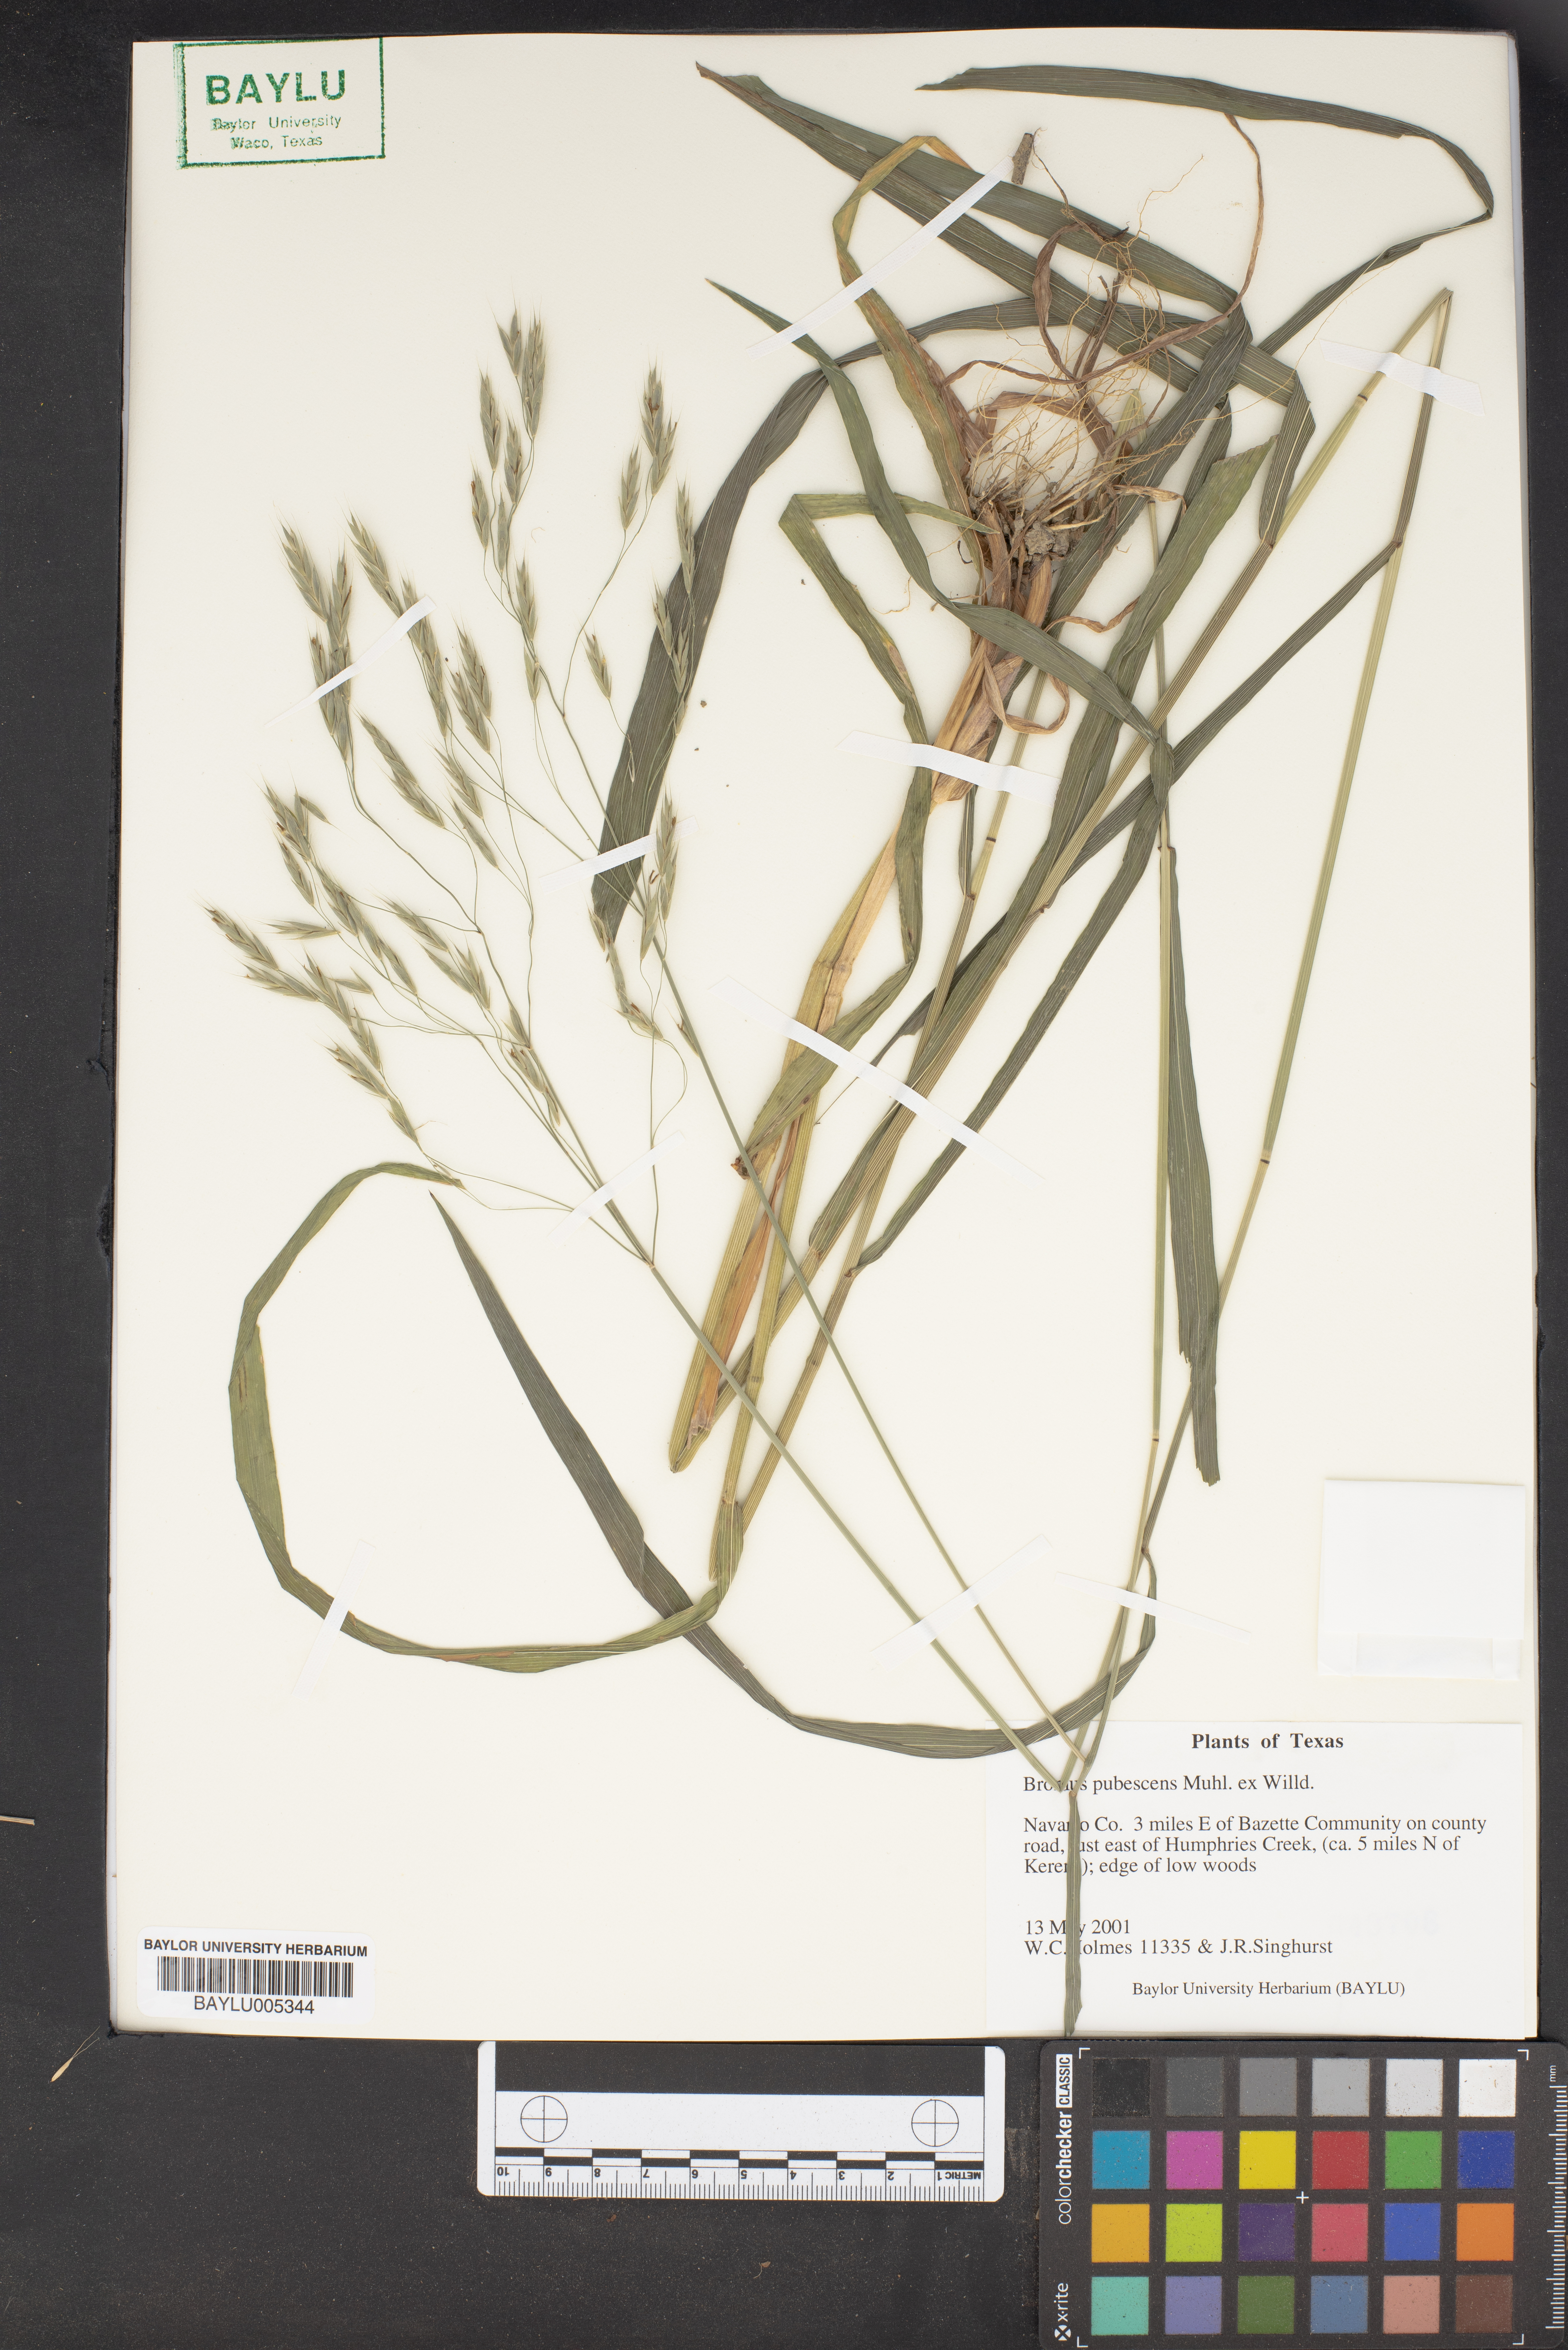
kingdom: Plantae
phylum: Tracheophyta
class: Liliopsida
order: Poales
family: Poaceae
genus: Bromus
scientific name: Bromus pubescens
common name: Hairy wood brome grass
